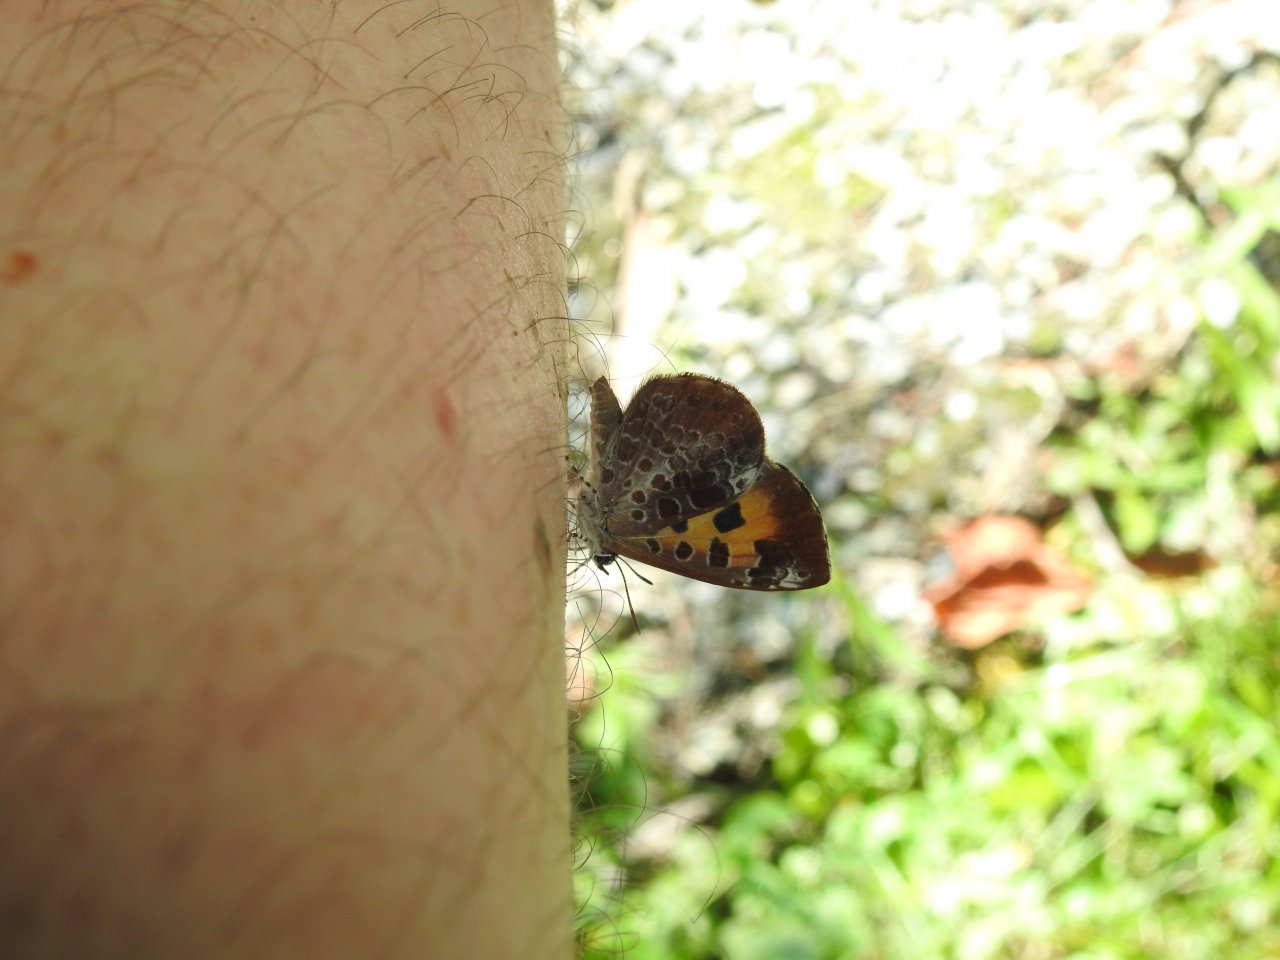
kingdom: Animalia
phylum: Arthropoda
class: Insecta
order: Lepidoptera
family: Lycaenidae
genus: Feniseca
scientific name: Feniseca tarquinius
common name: Harvester
